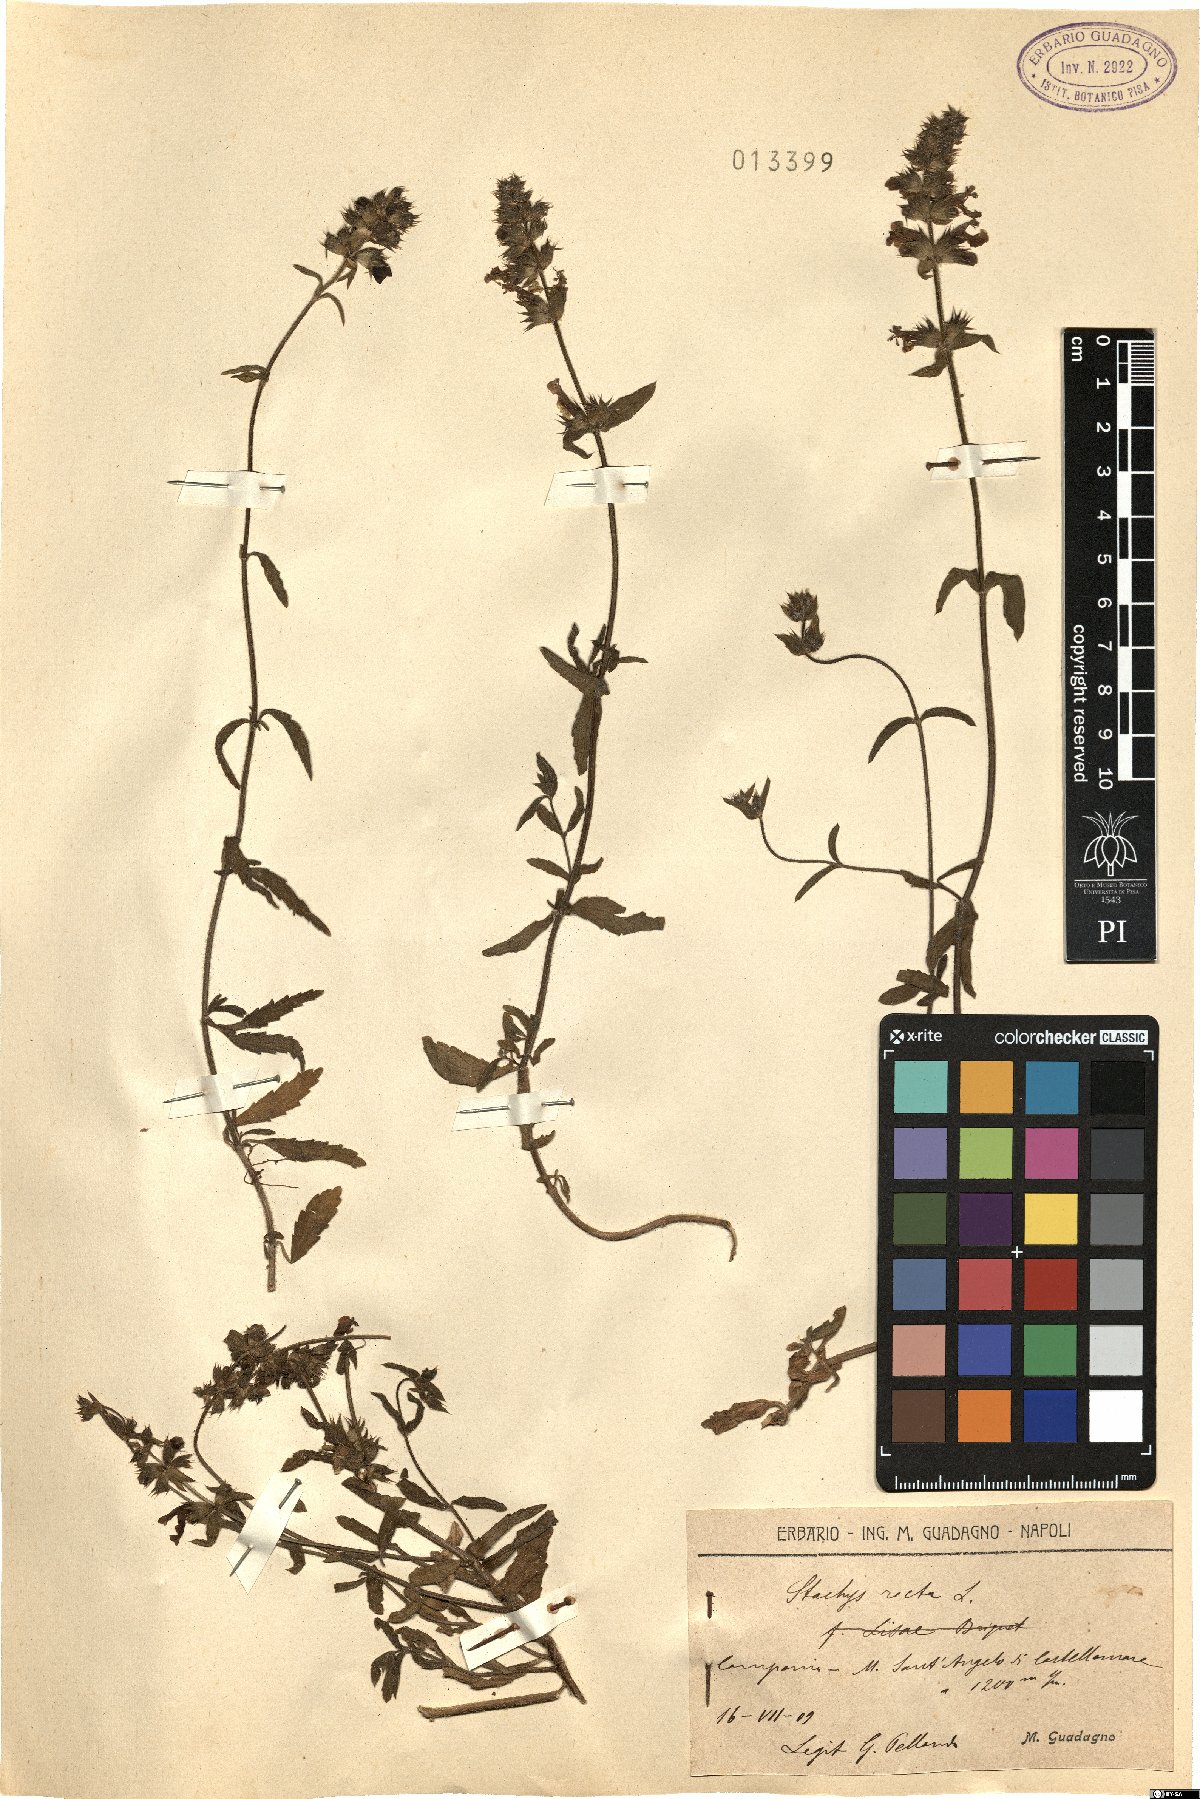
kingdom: Plantae
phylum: Tracheophyta
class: Magnoliopsida
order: Lamiales
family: Lamiaceae
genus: Stachys
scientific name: Stachys recta
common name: Perennial yellow-woundwort
